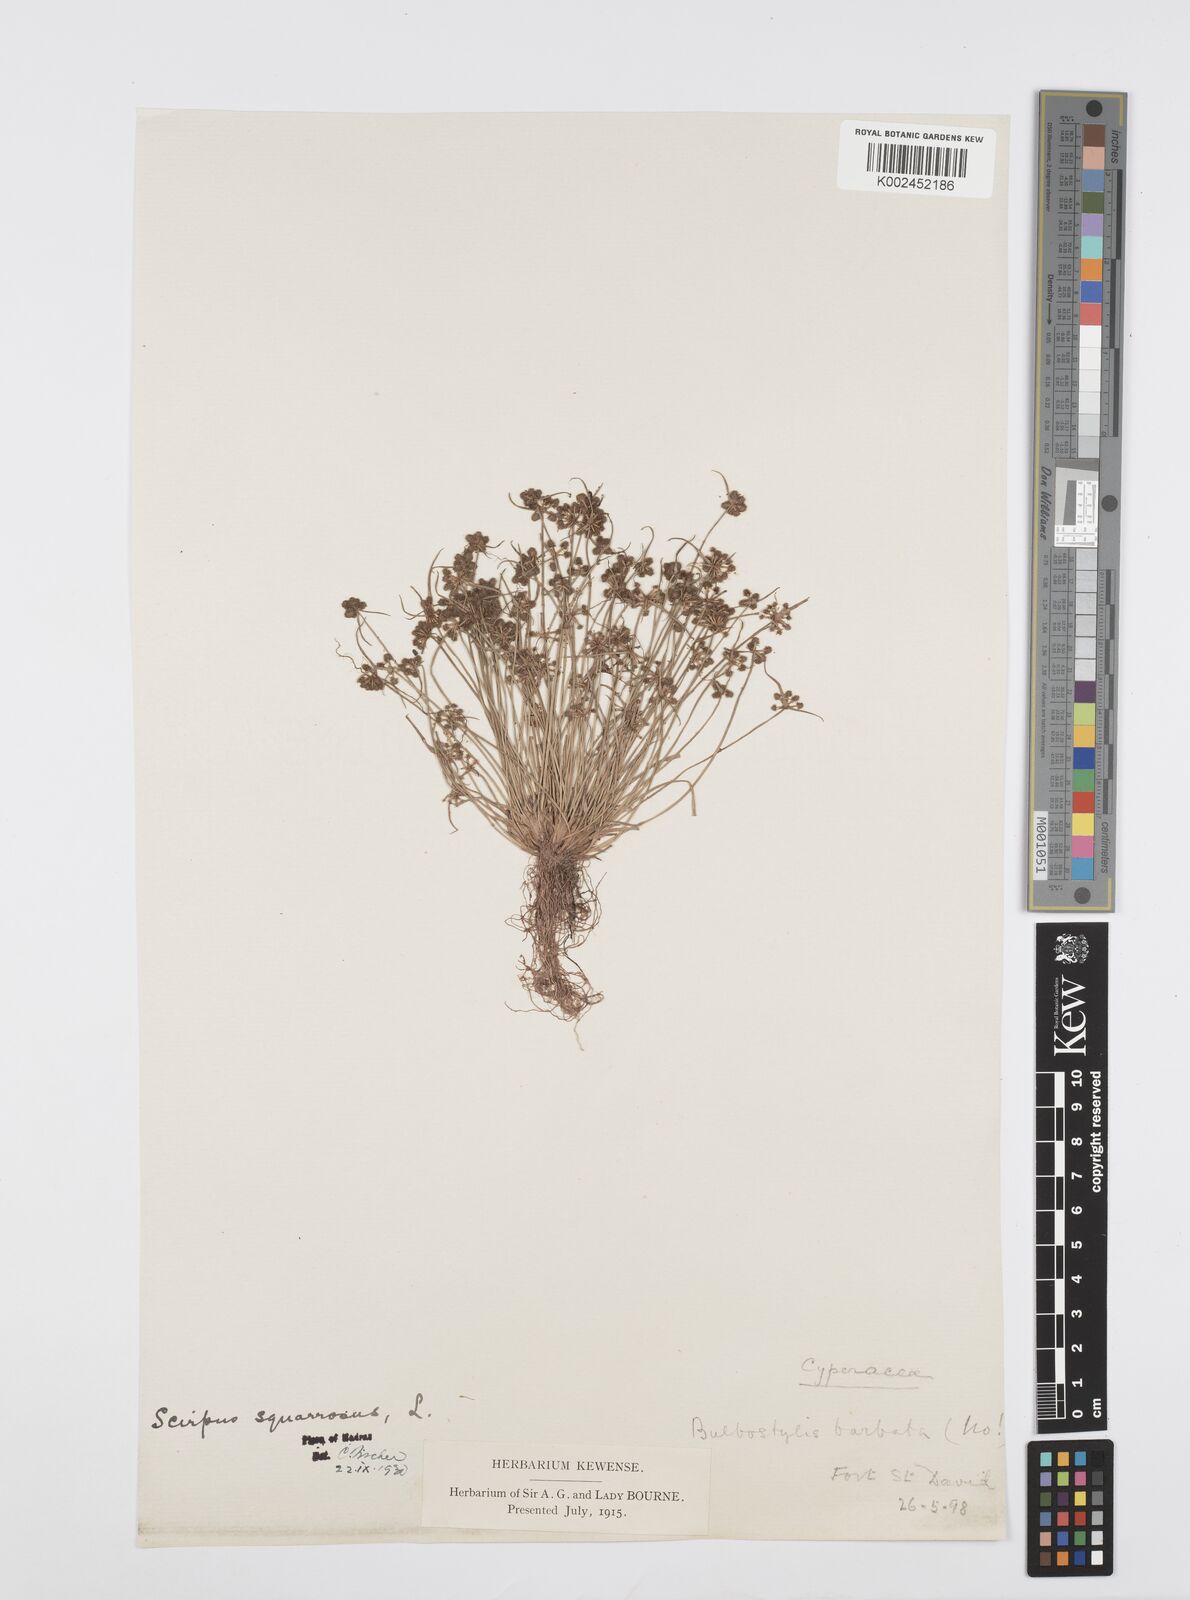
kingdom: Plantae
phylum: Tracheophyta
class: Liliopsida
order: Poales
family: Cyperaceae
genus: Cyperus
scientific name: Cyperus squarrosus
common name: Awned cyperus
